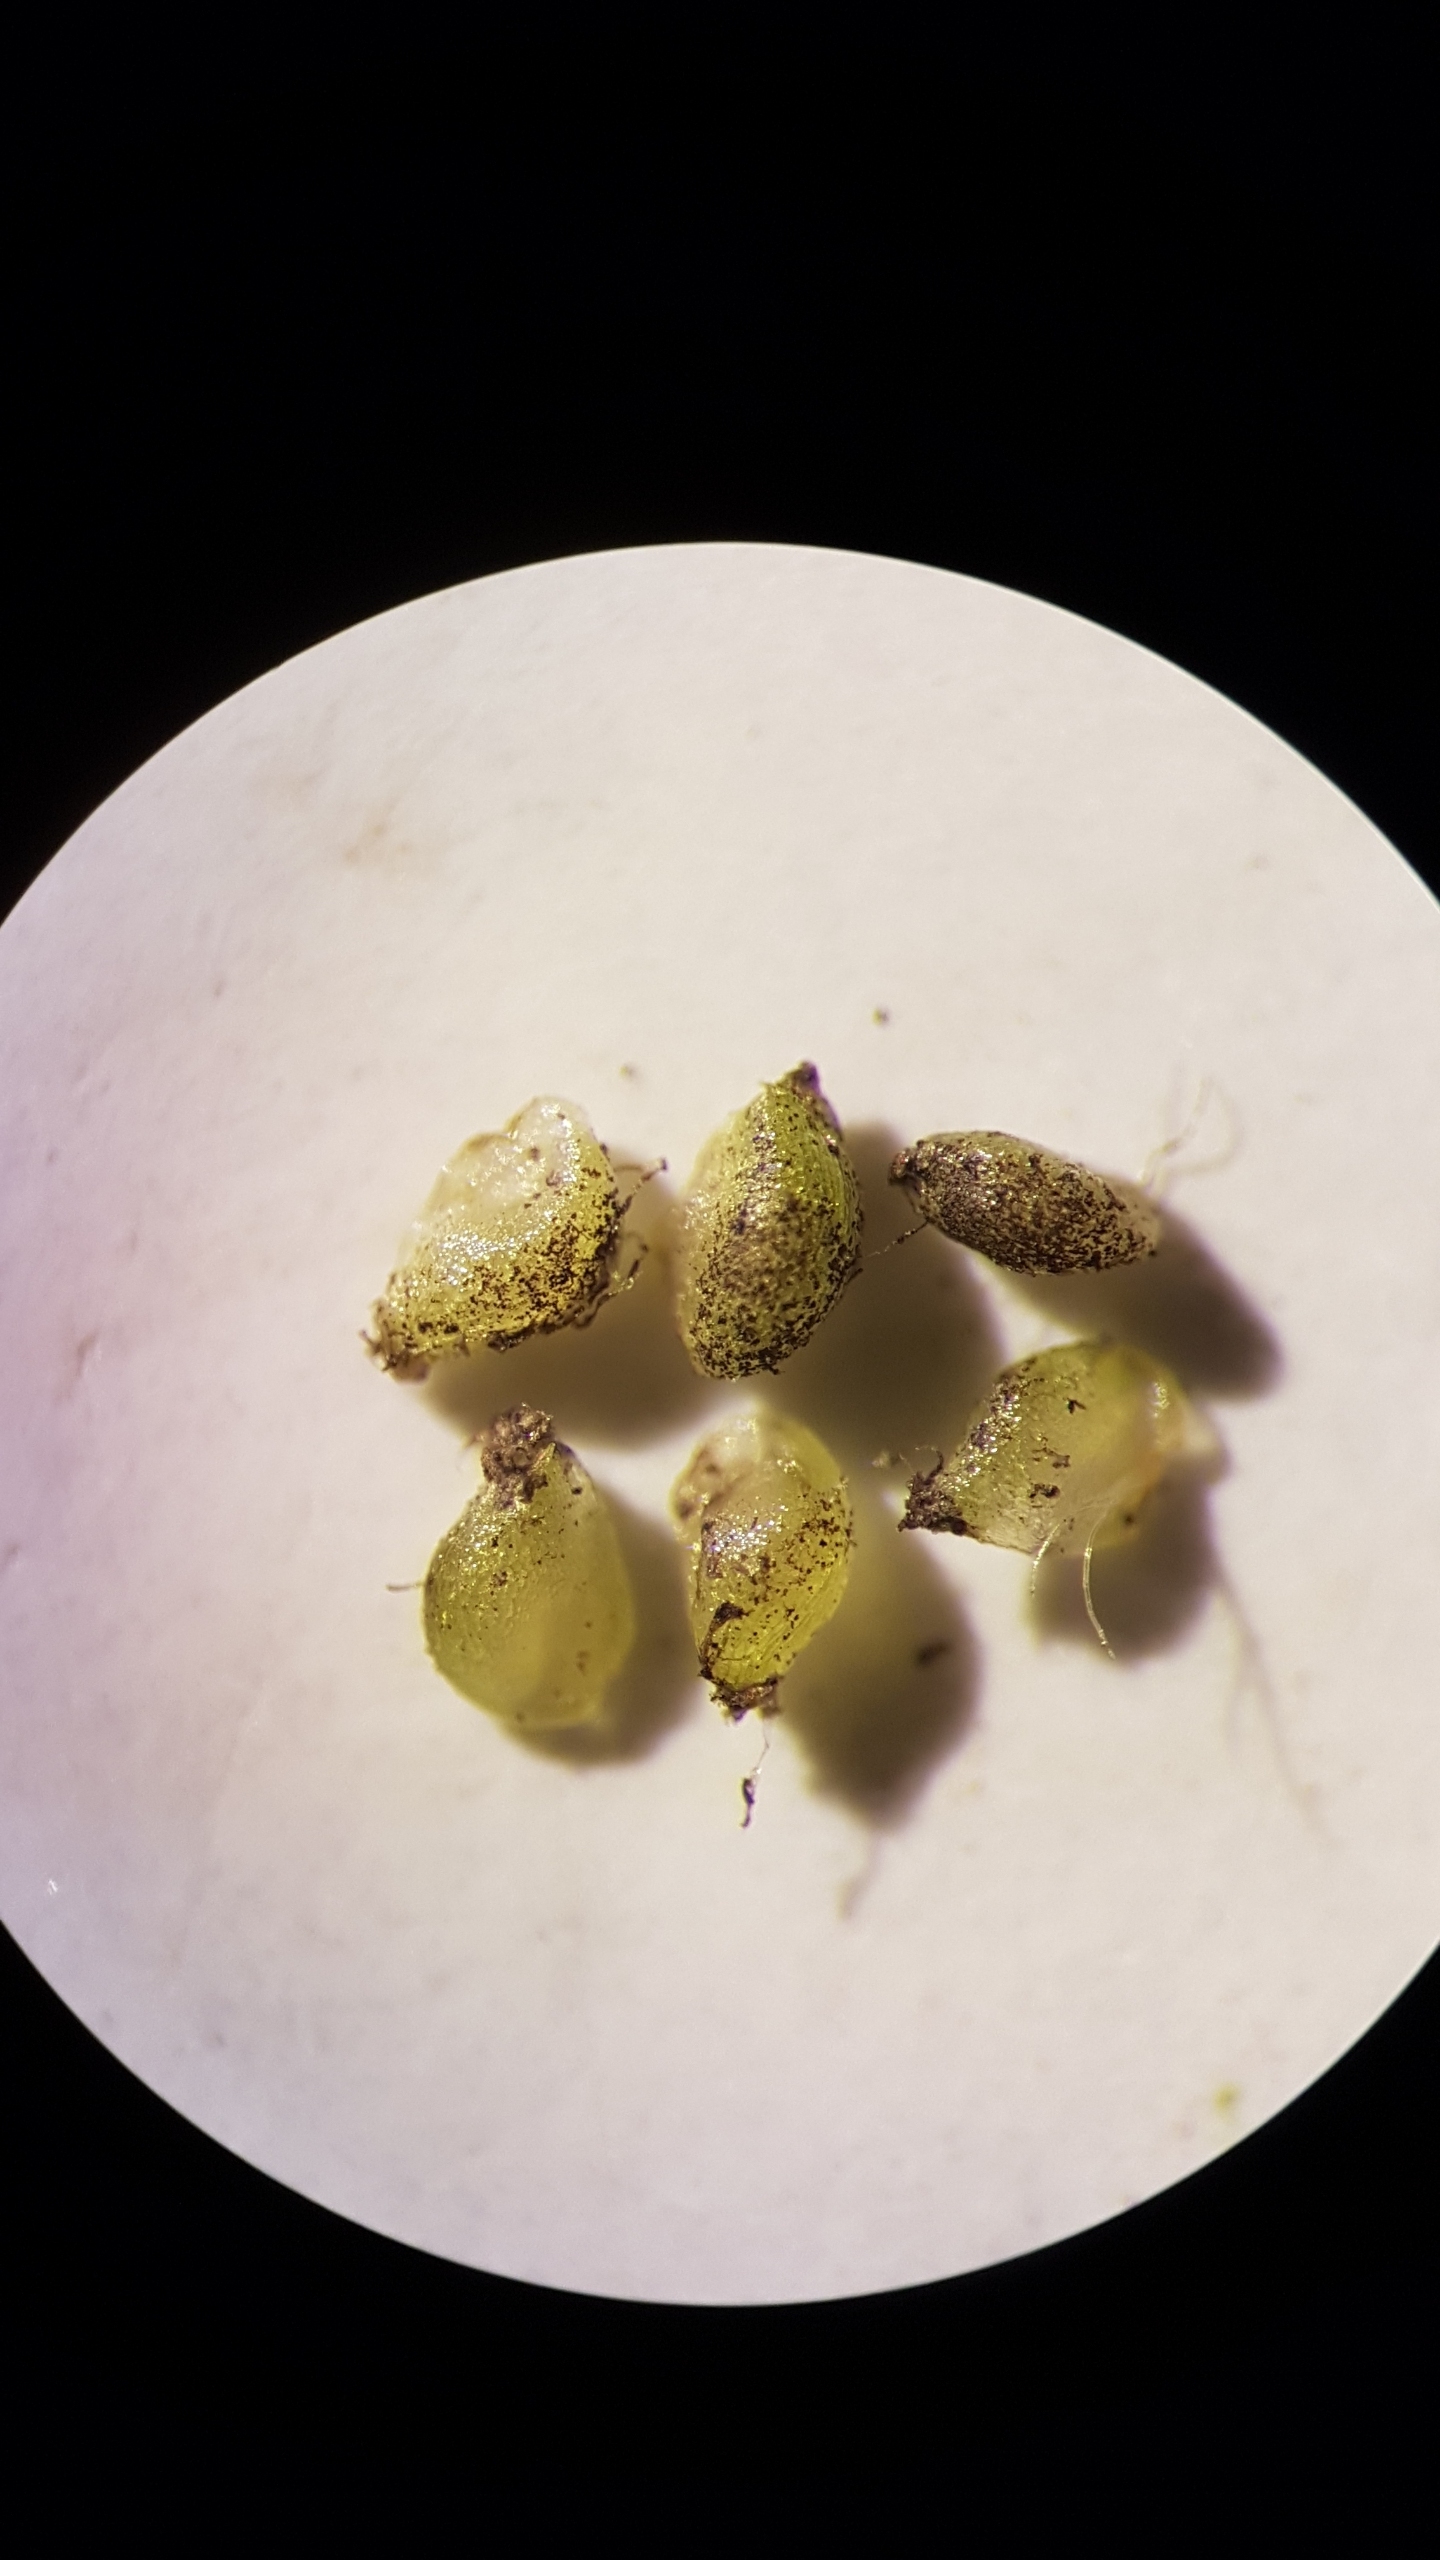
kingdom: Plantae
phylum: Tracheophyta
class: Magnoliopsida
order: Ranunculales
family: Ranunculaceae
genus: Ranunculus
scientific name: Ranunculus aquatilis
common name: Almindelig vandranunkel
